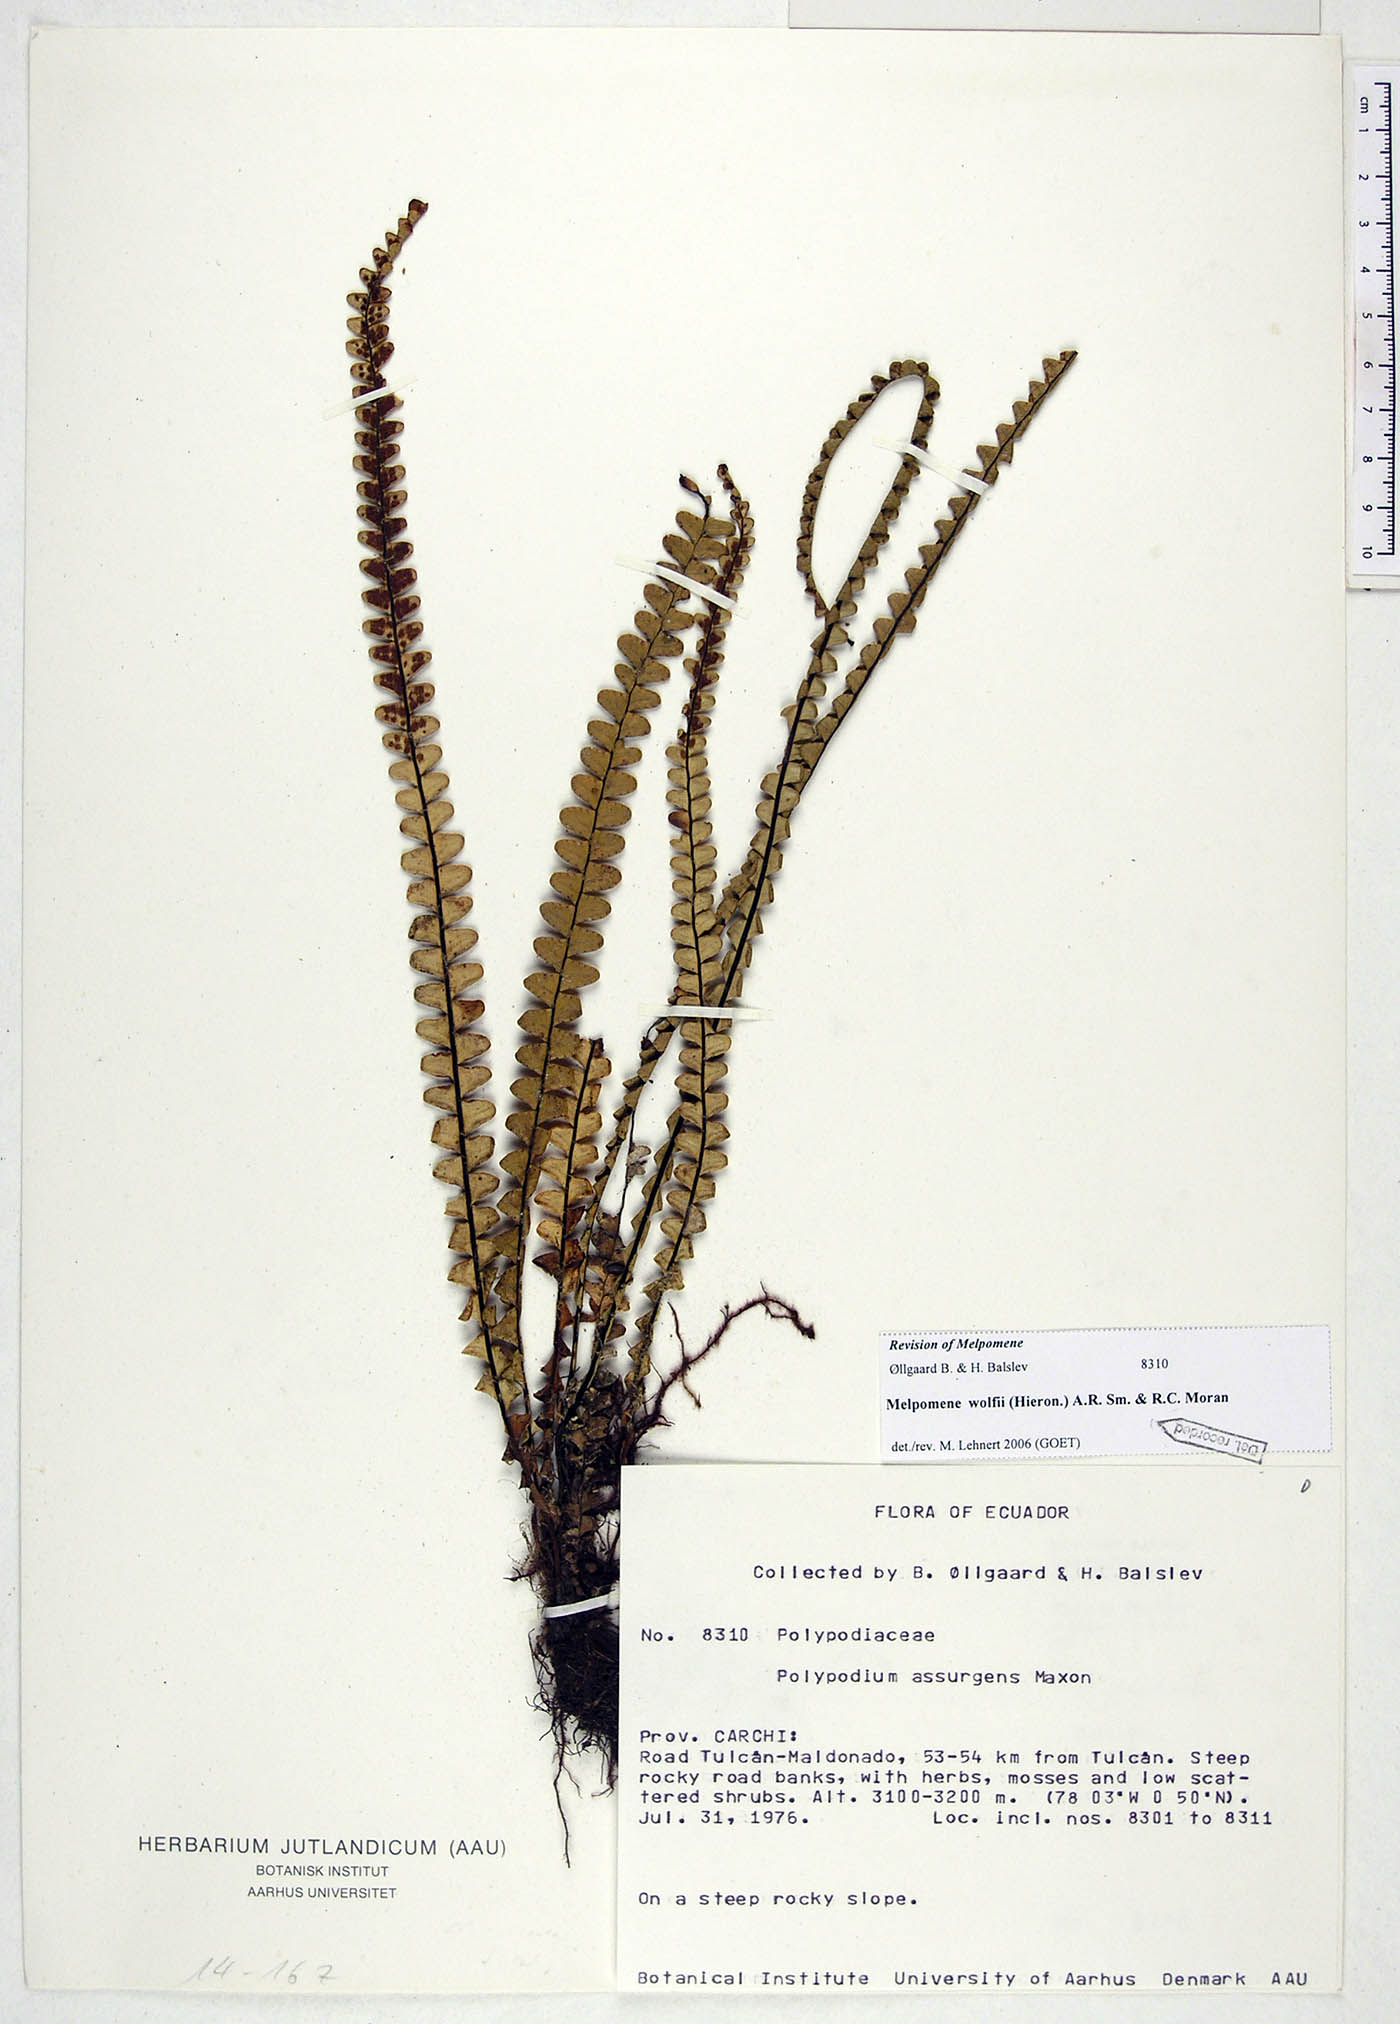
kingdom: Plantae
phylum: Tracheophyta
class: Polypodiopsida
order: Polypodiales
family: Polypodiaceae
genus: Melpomene
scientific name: Melpomene wolfii
